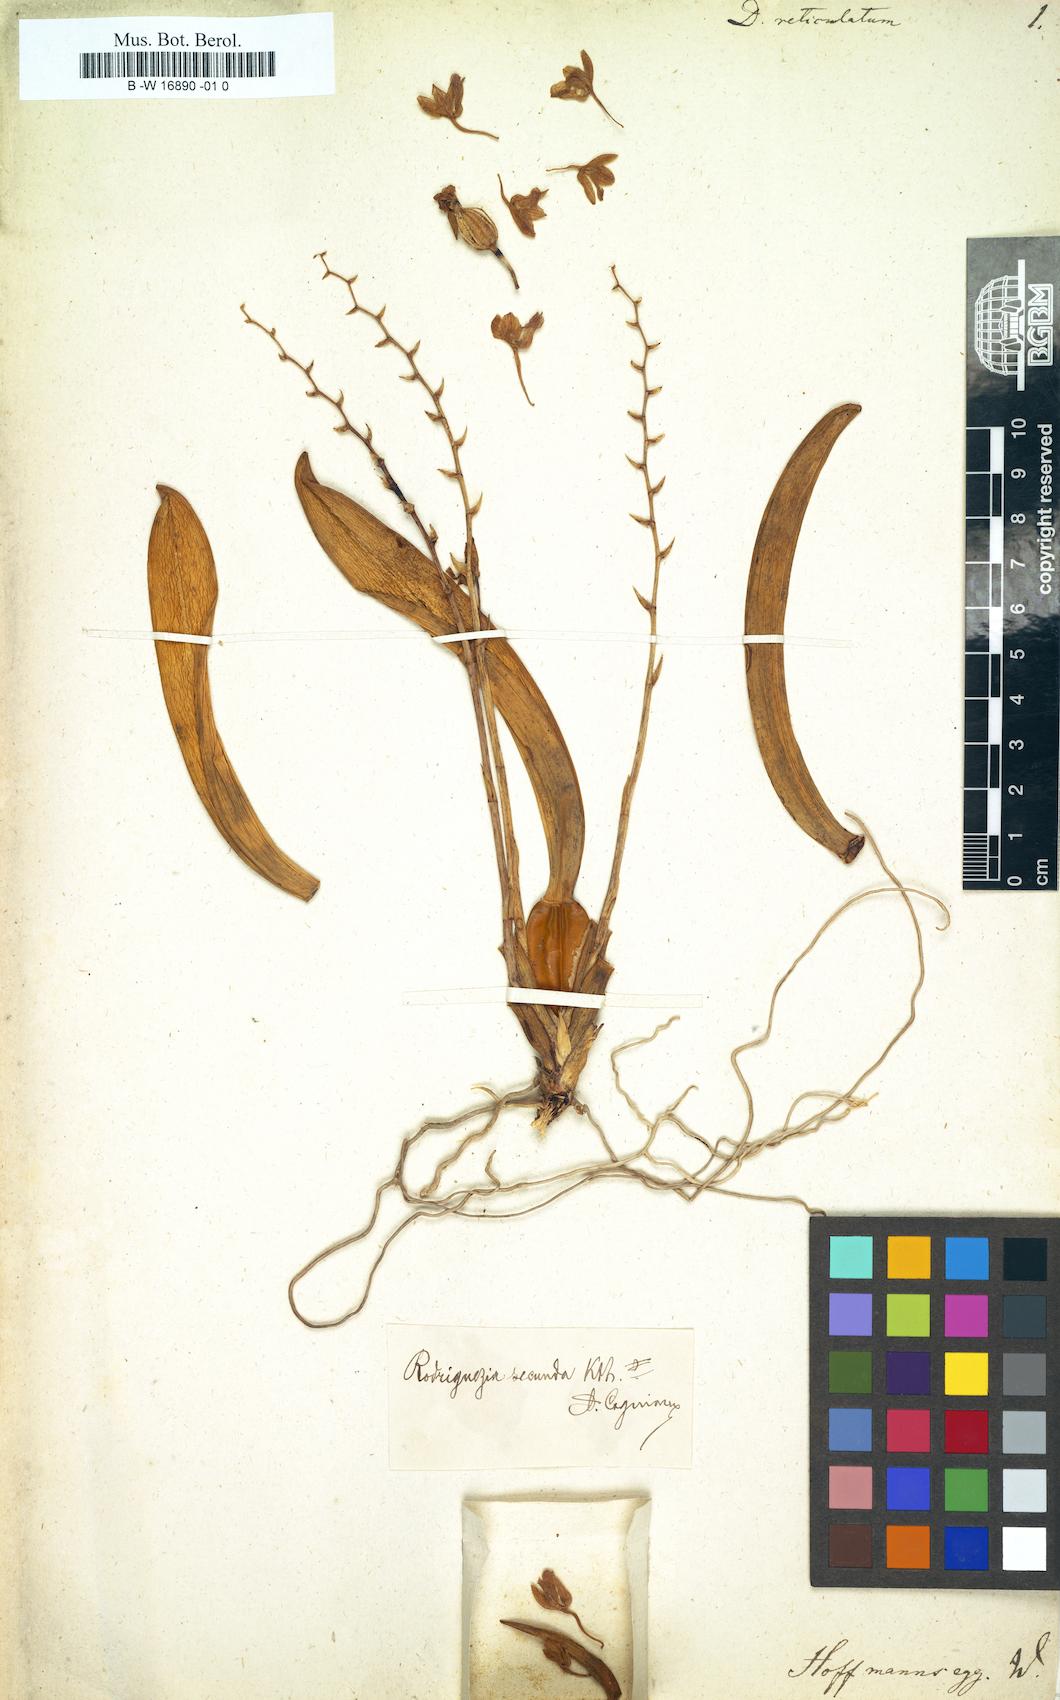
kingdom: Plantae
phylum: Tracheophyta
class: Liliopsida
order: Asparagales
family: Orchidaceae
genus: Dendrobium
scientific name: Dendrobium spectatissimum
